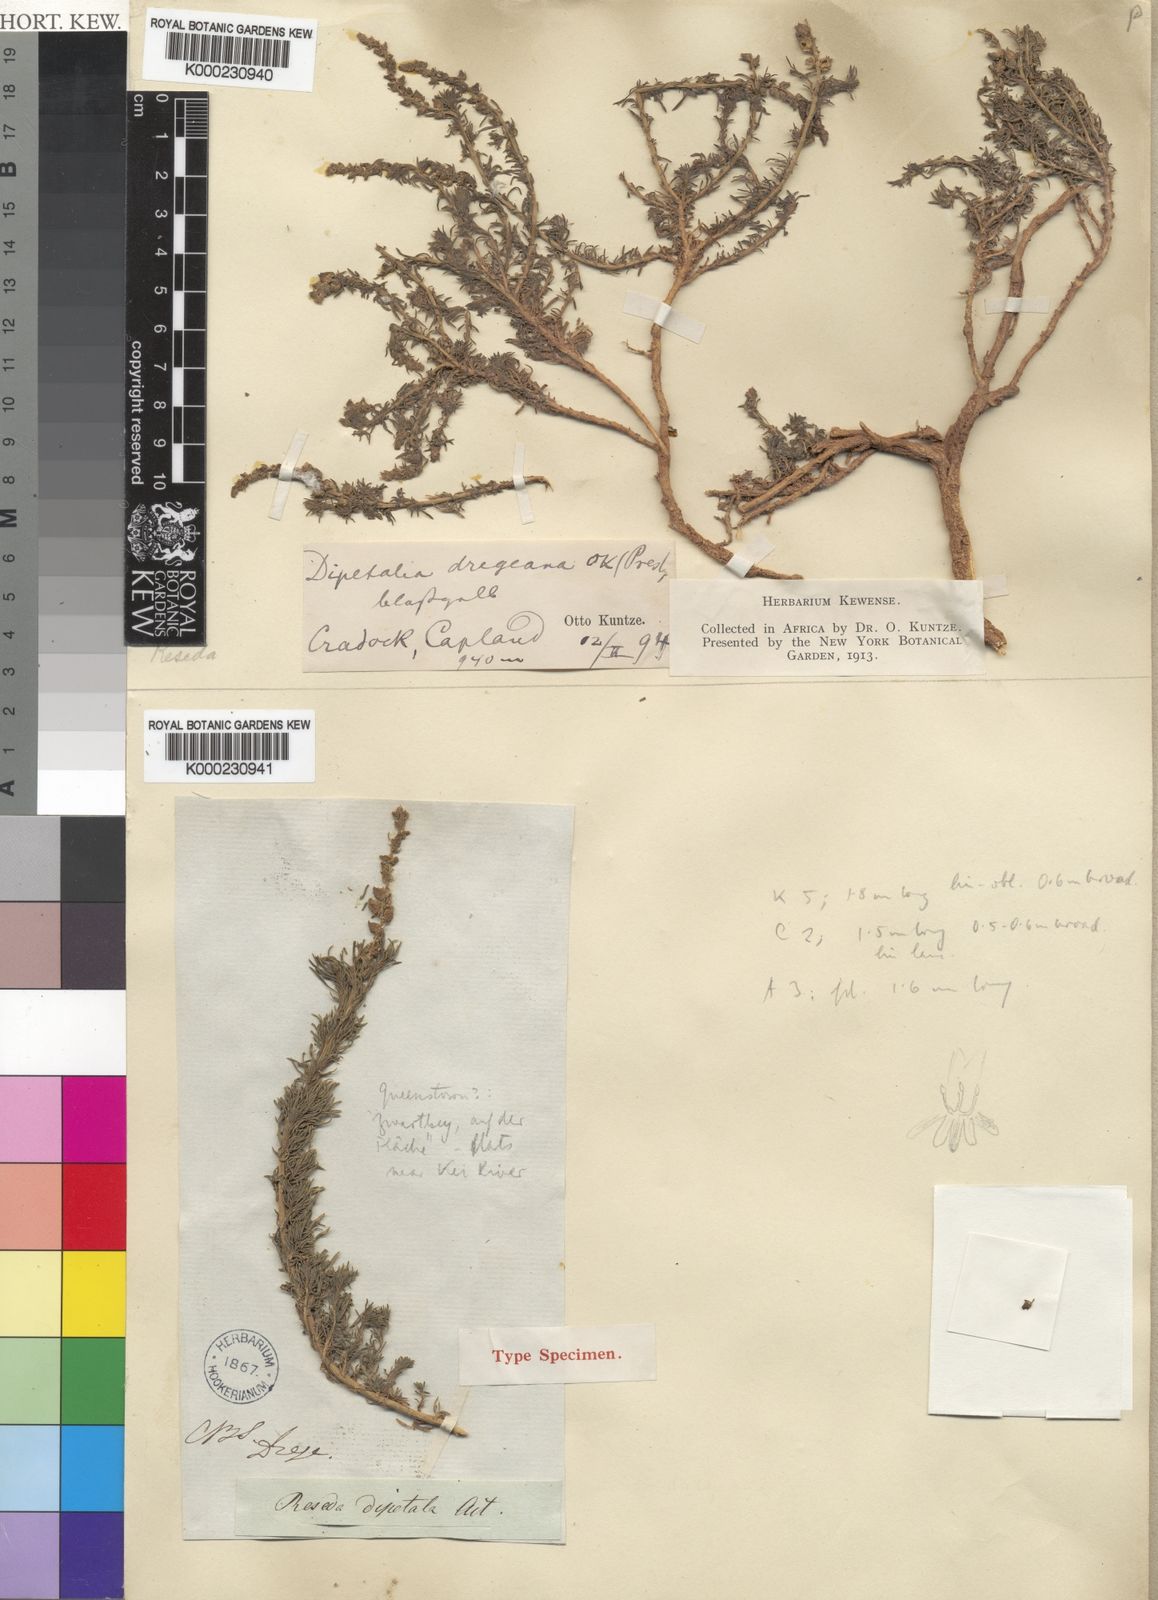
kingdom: Plantae
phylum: Tracheophyta
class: Magnoliopsida
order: Brassicales
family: Resedaceae
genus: Oligomeris
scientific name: Oligomeris
